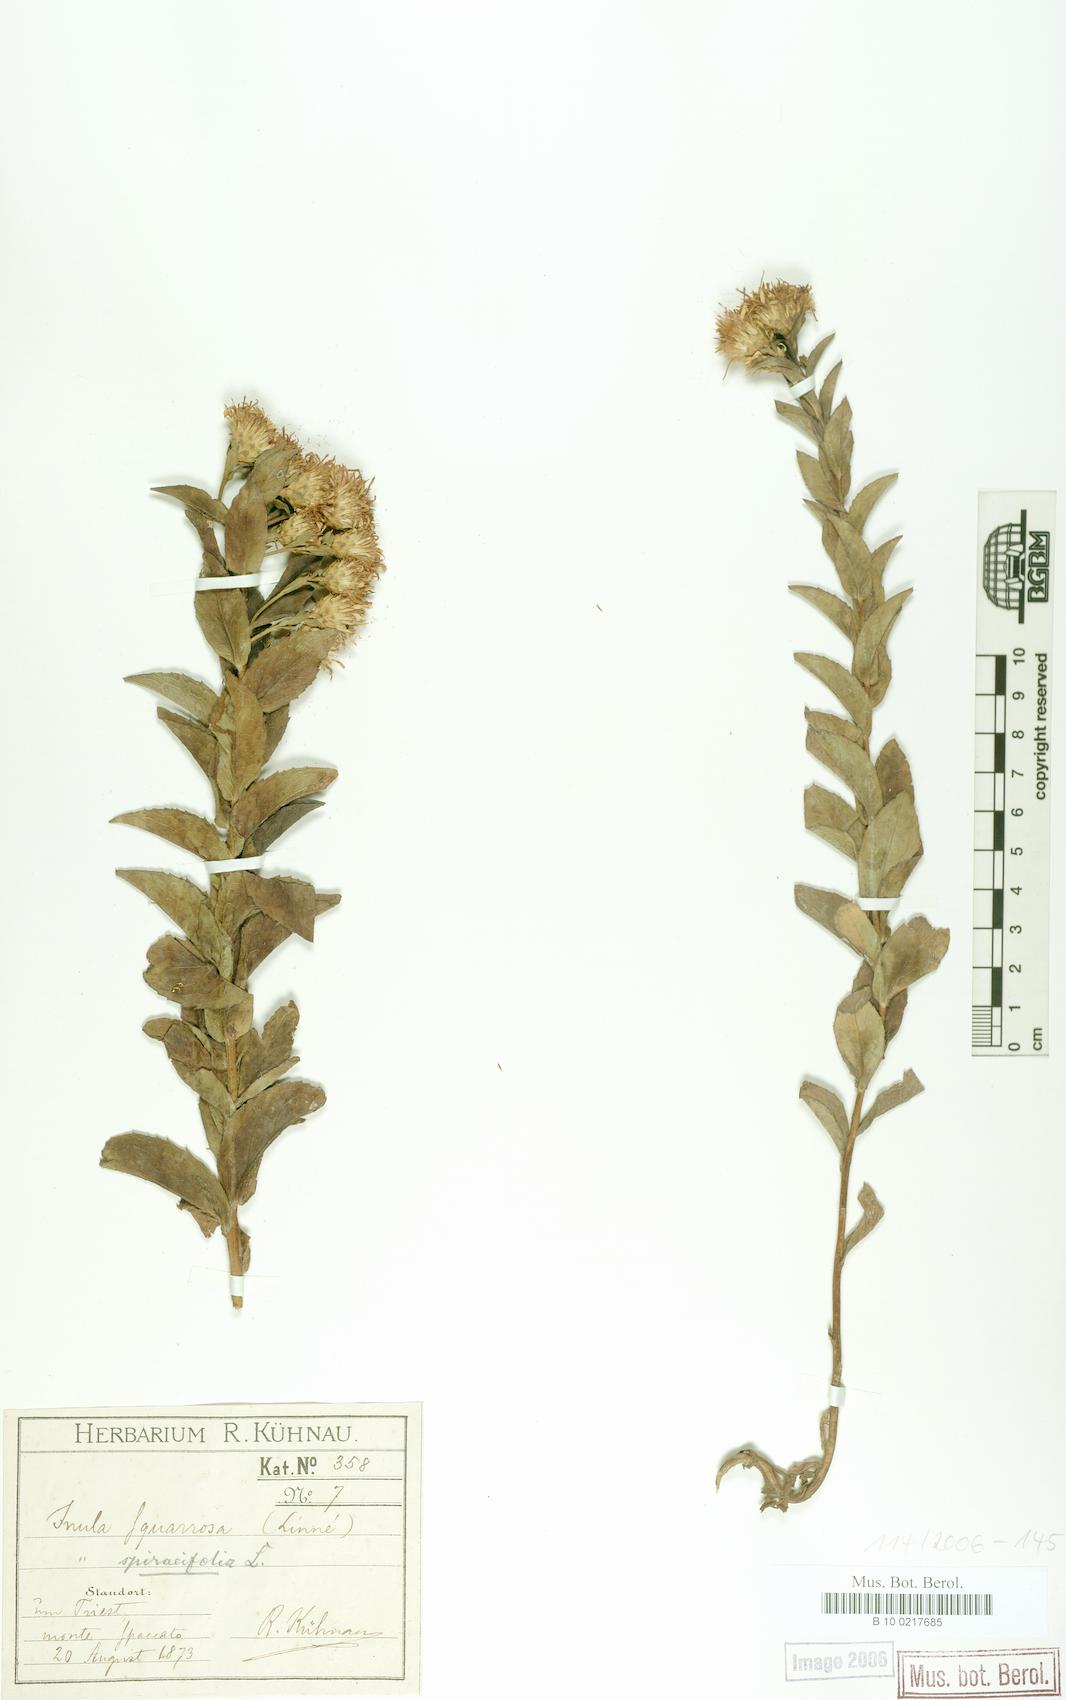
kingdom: Plantae
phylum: Tracheophyta
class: Magnoliopsida
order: Asterales
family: Asteraceae
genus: Pentanema
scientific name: Pentanema spiraeifolium
